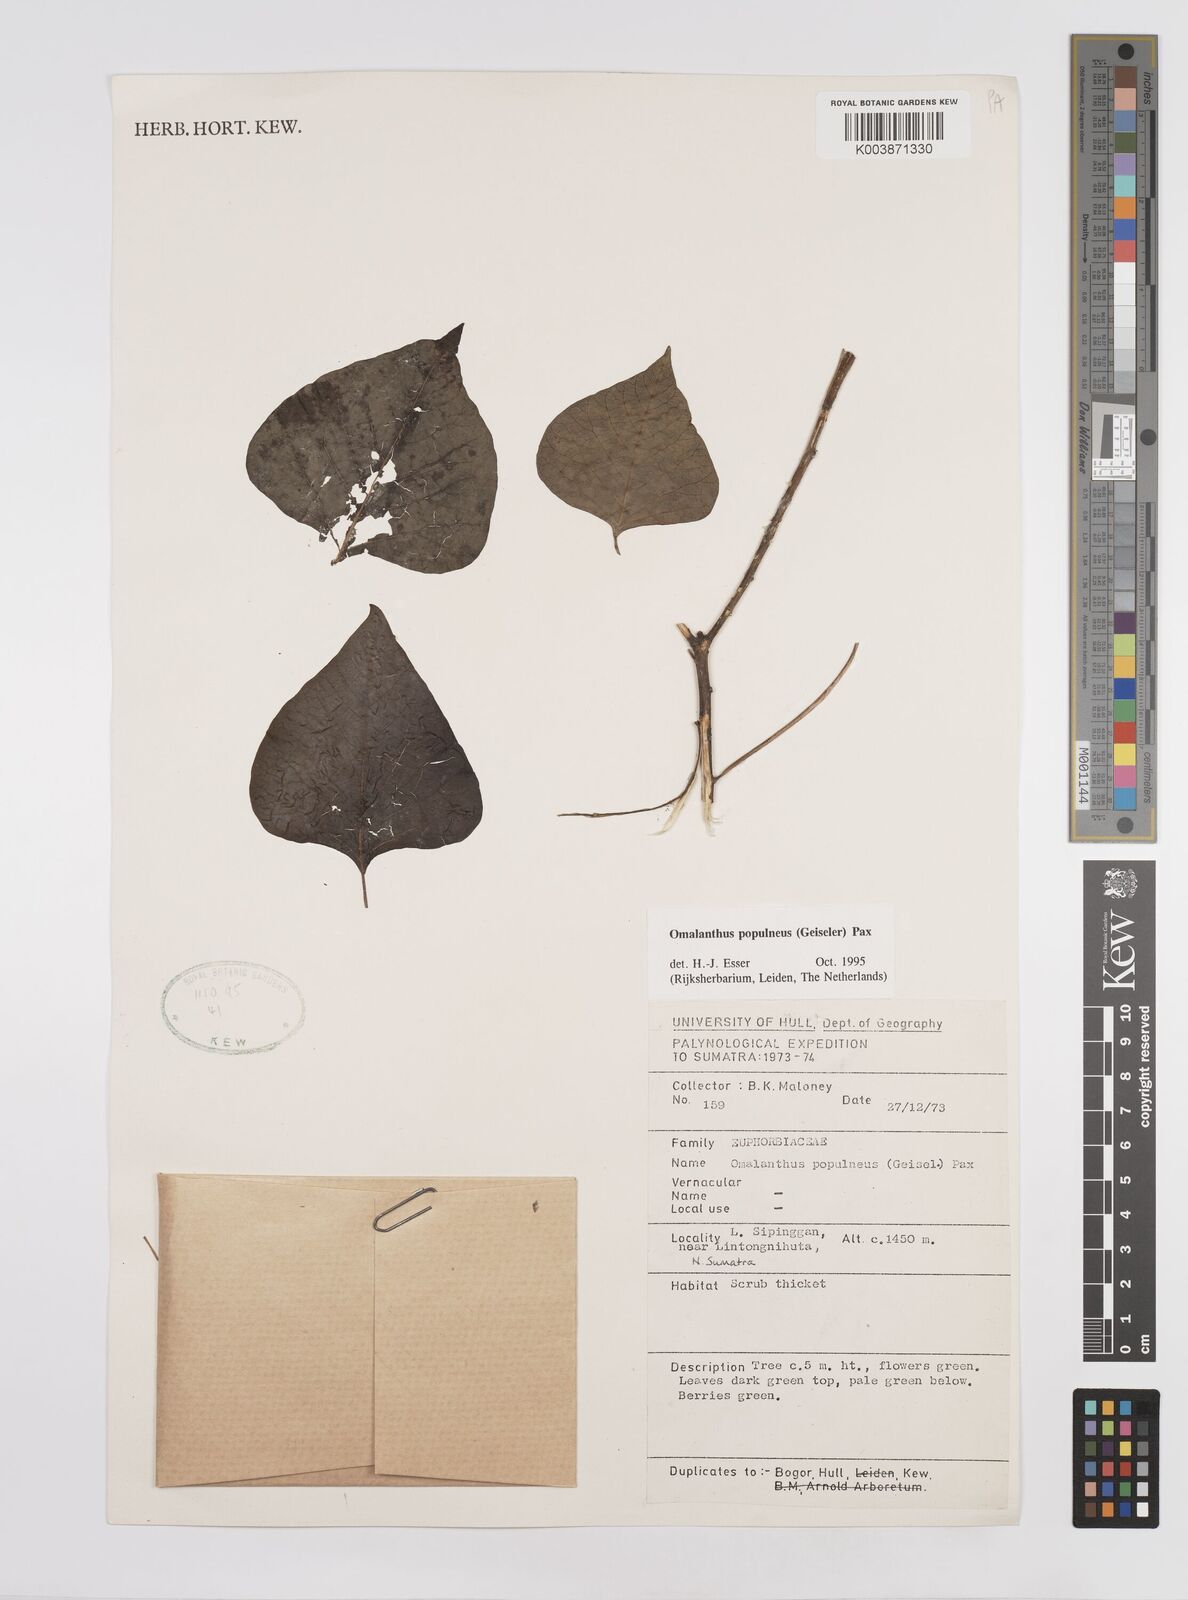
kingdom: Plantae
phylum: Tracheophyta
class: Magnoliopsida
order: Malpighiales
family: Euphorbiaceae
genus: Homalanthus
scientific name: Homalanthus populneus
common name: Spurge
